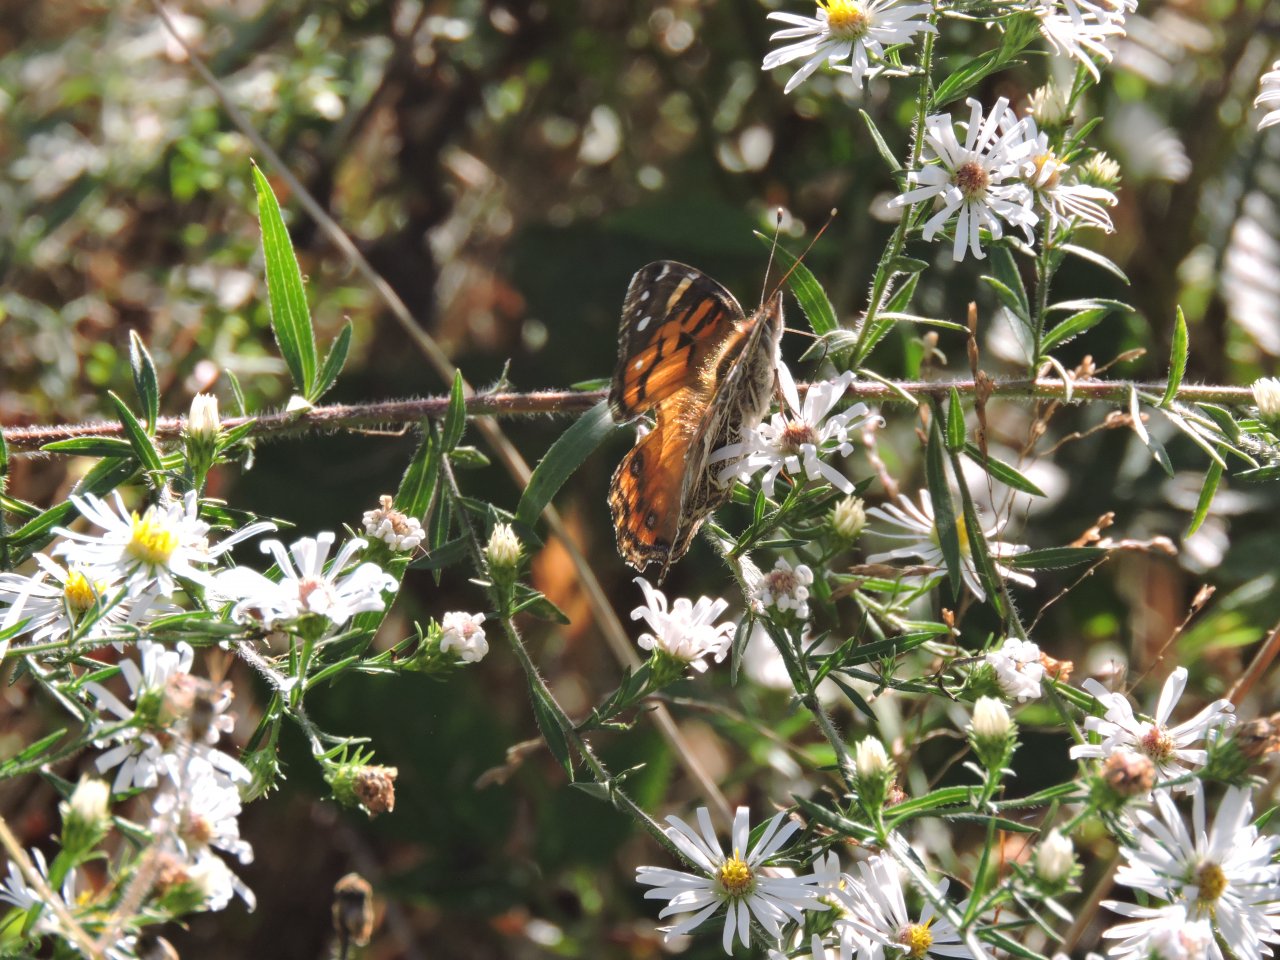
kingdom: Animalia
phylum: Arthropoda
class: Insecta
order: Lepidoptera
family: Nymphalidae
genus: Vanessa
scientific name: Vanessa virginiensis
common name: American Lady
